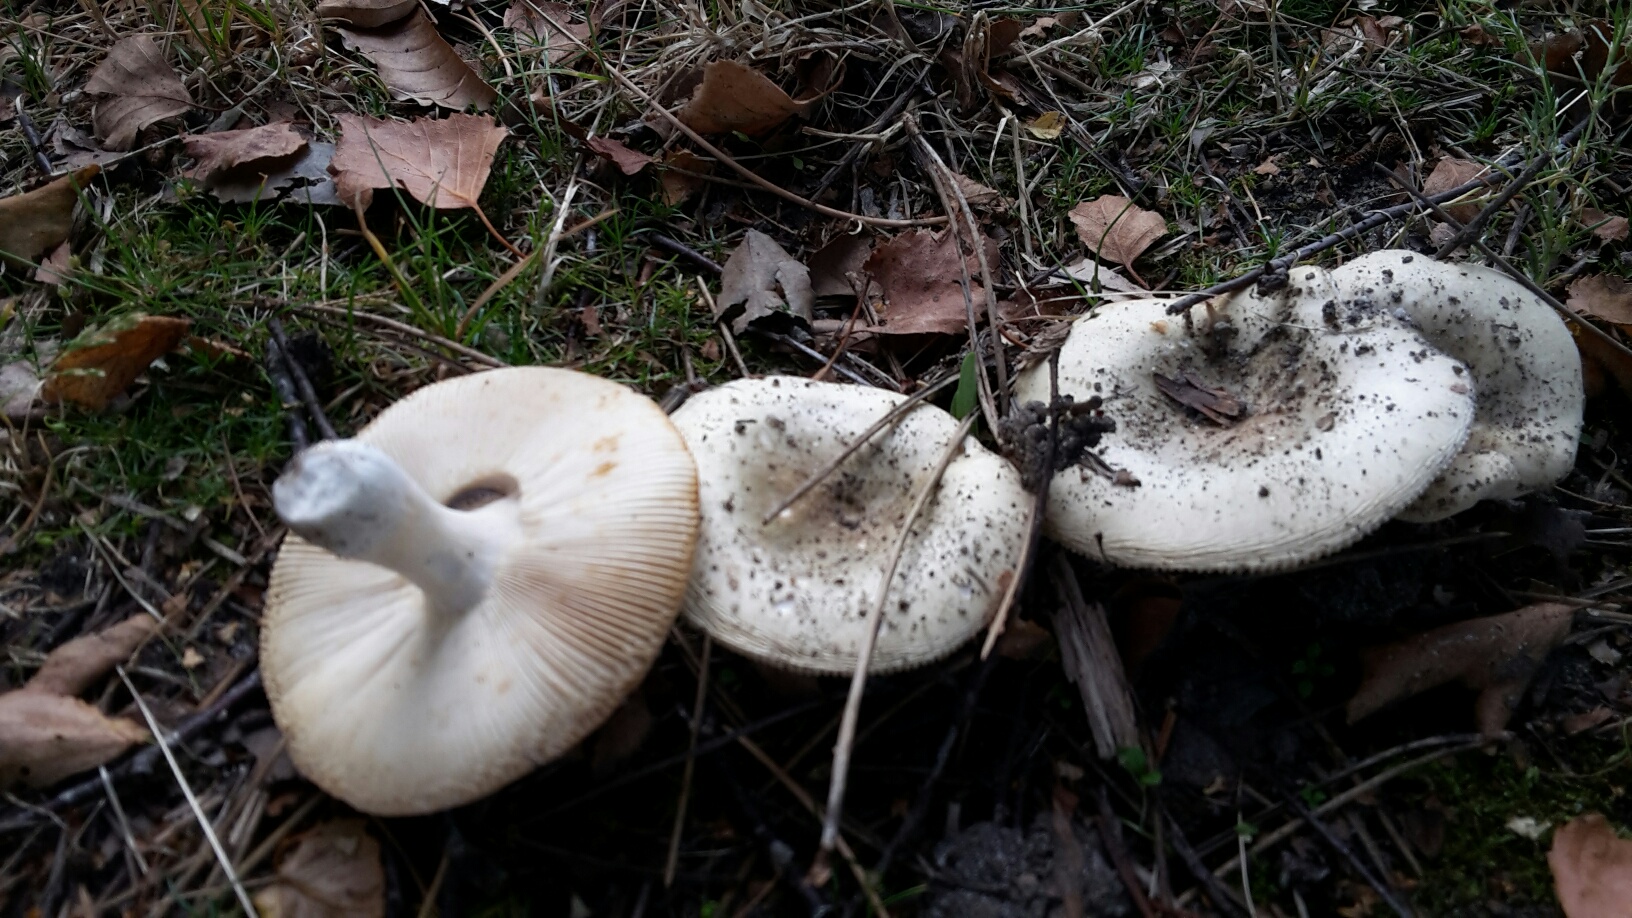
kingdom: Fungi
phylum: Basidiomycota
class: Agaricomycetes
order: Russulales
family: Russulaceae
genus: Russula
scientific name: Russula aeruginea
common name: græsgrøn skørhat
